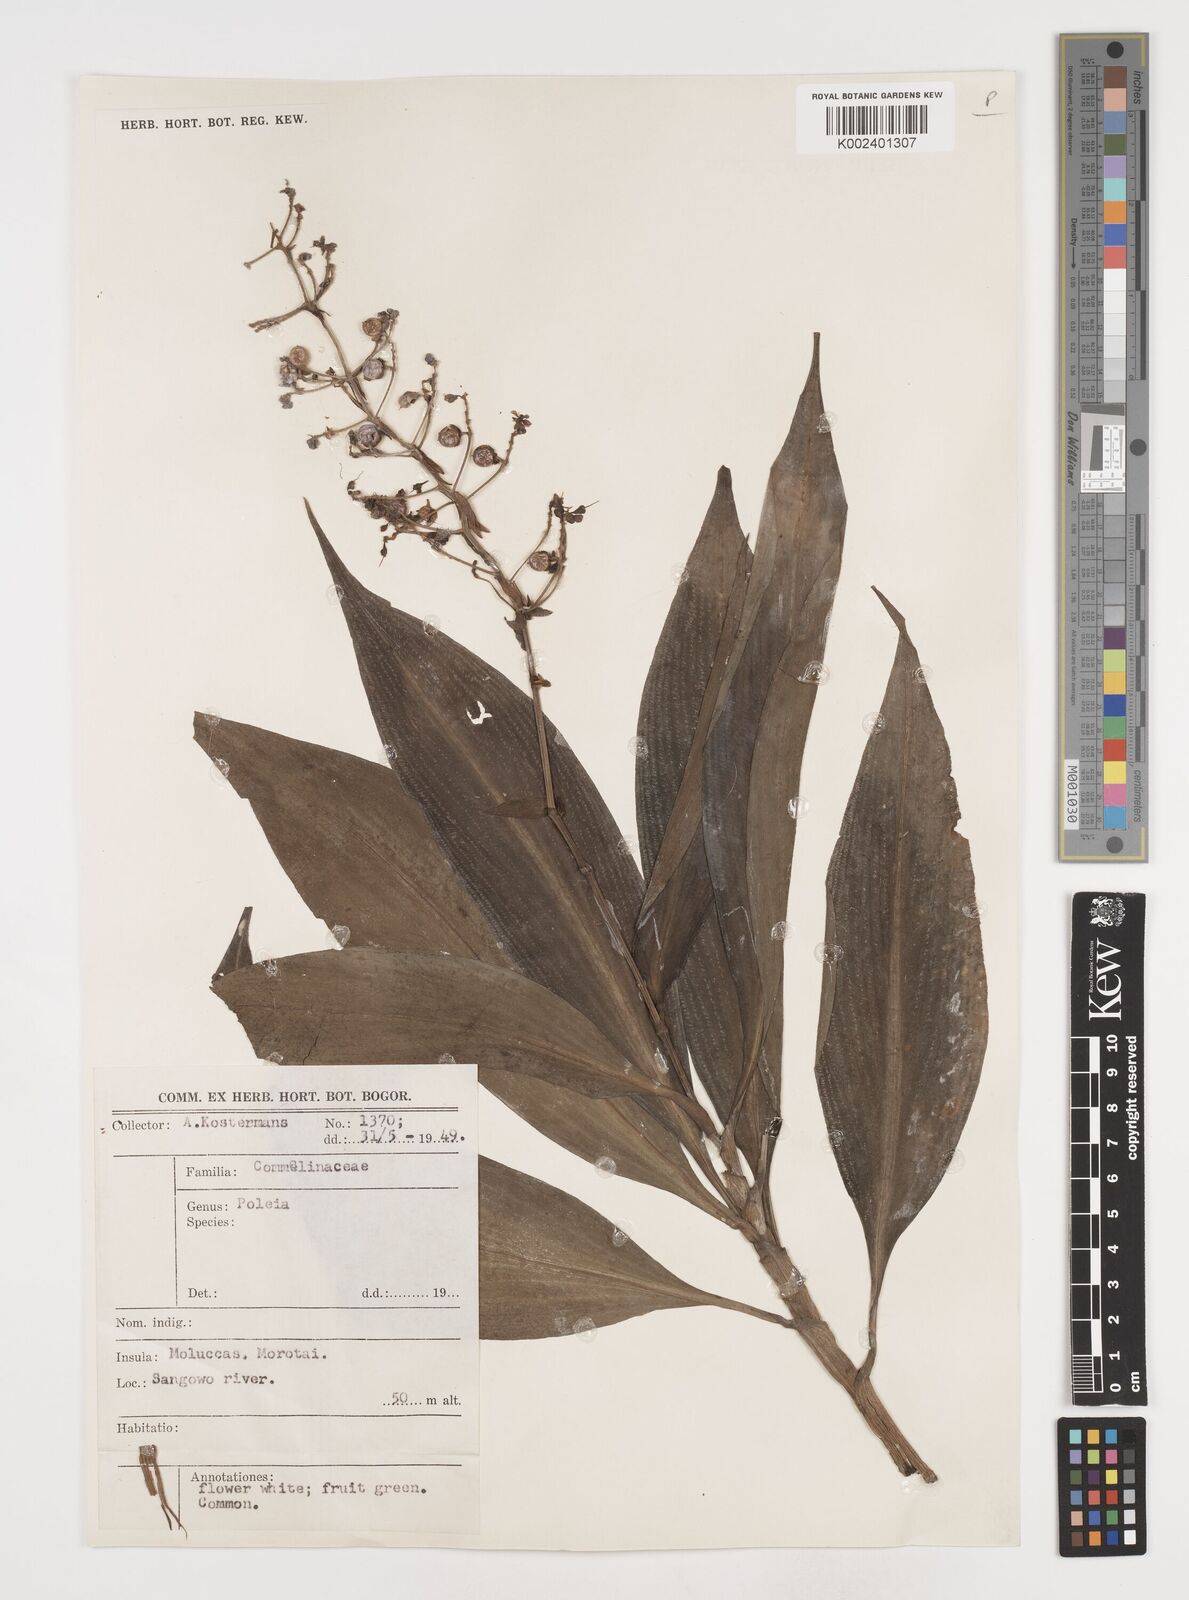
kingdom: Plantae
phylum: Tracheophyta
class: Liliopsida
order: Commelinales
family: Commelinaceae
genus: Pollia
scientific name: Pollia secundiflora
